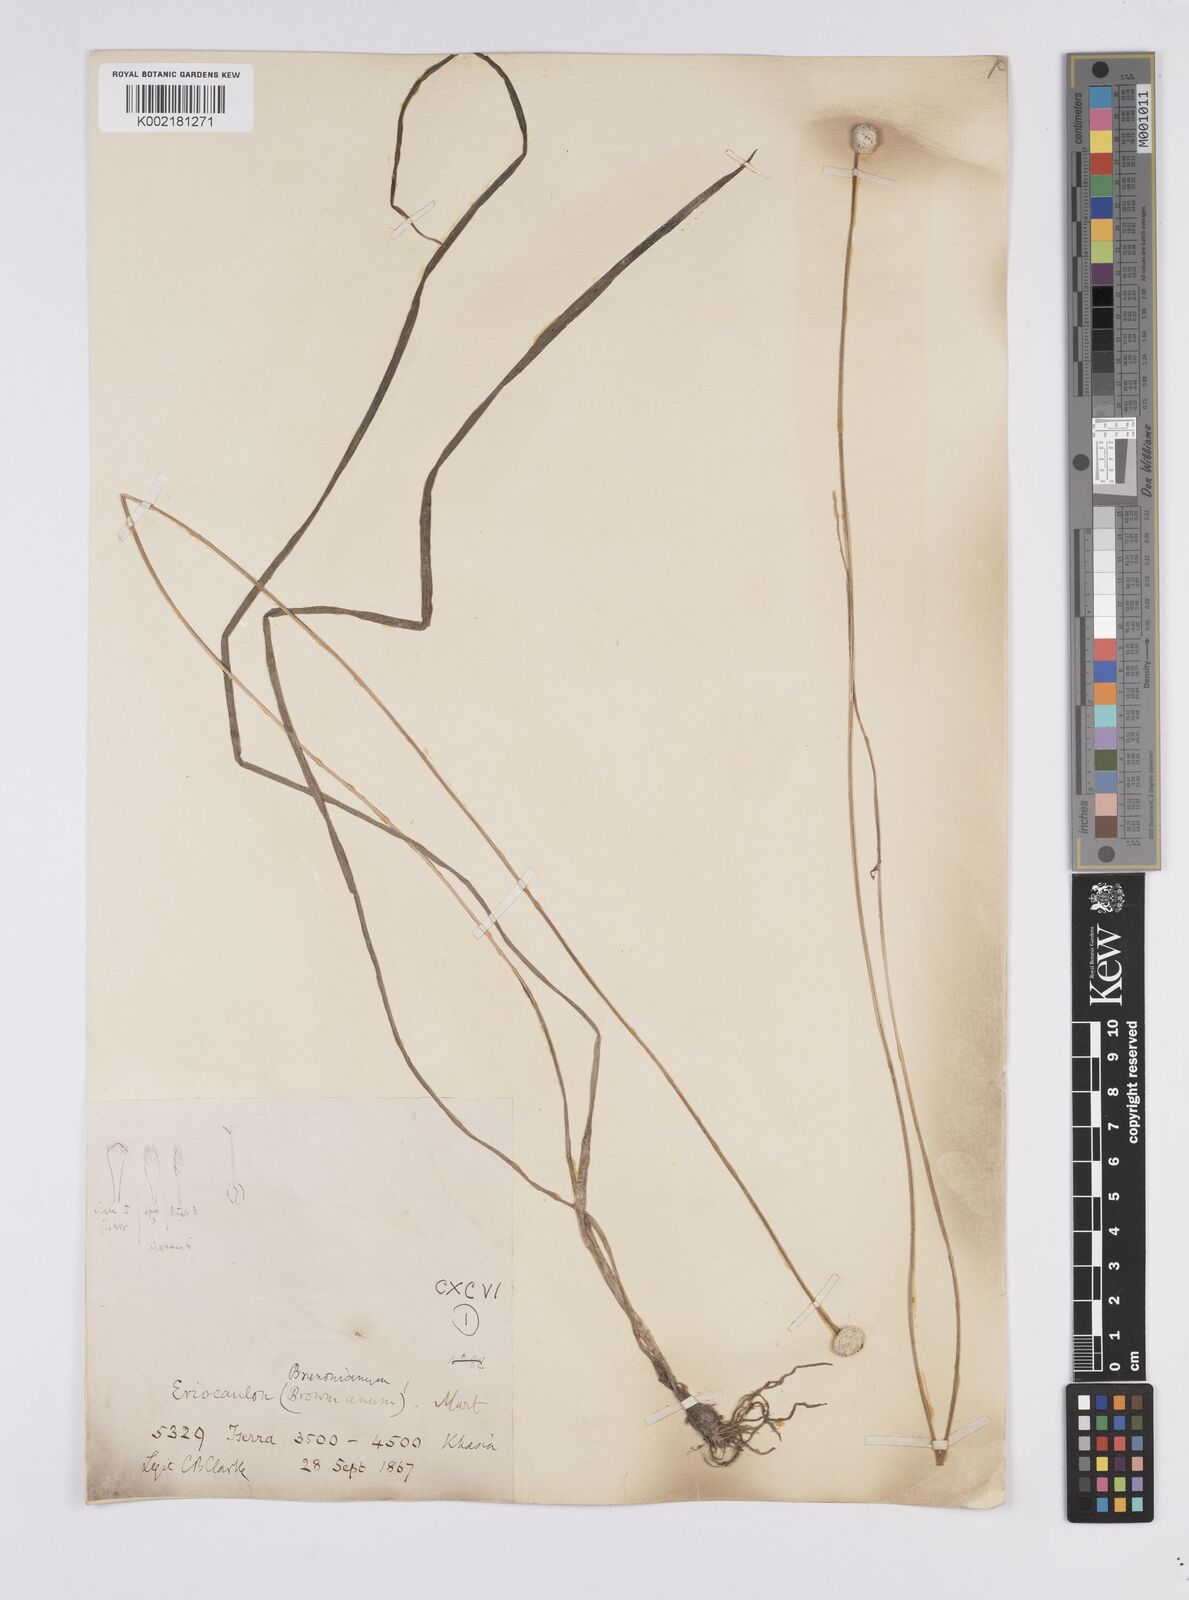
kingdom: Plantae
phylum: Tracheophyta
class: Liliopsida
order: Poales
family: Eriocaulaceae
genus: Eriocaulon
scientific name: Eriocaulon brownianum
